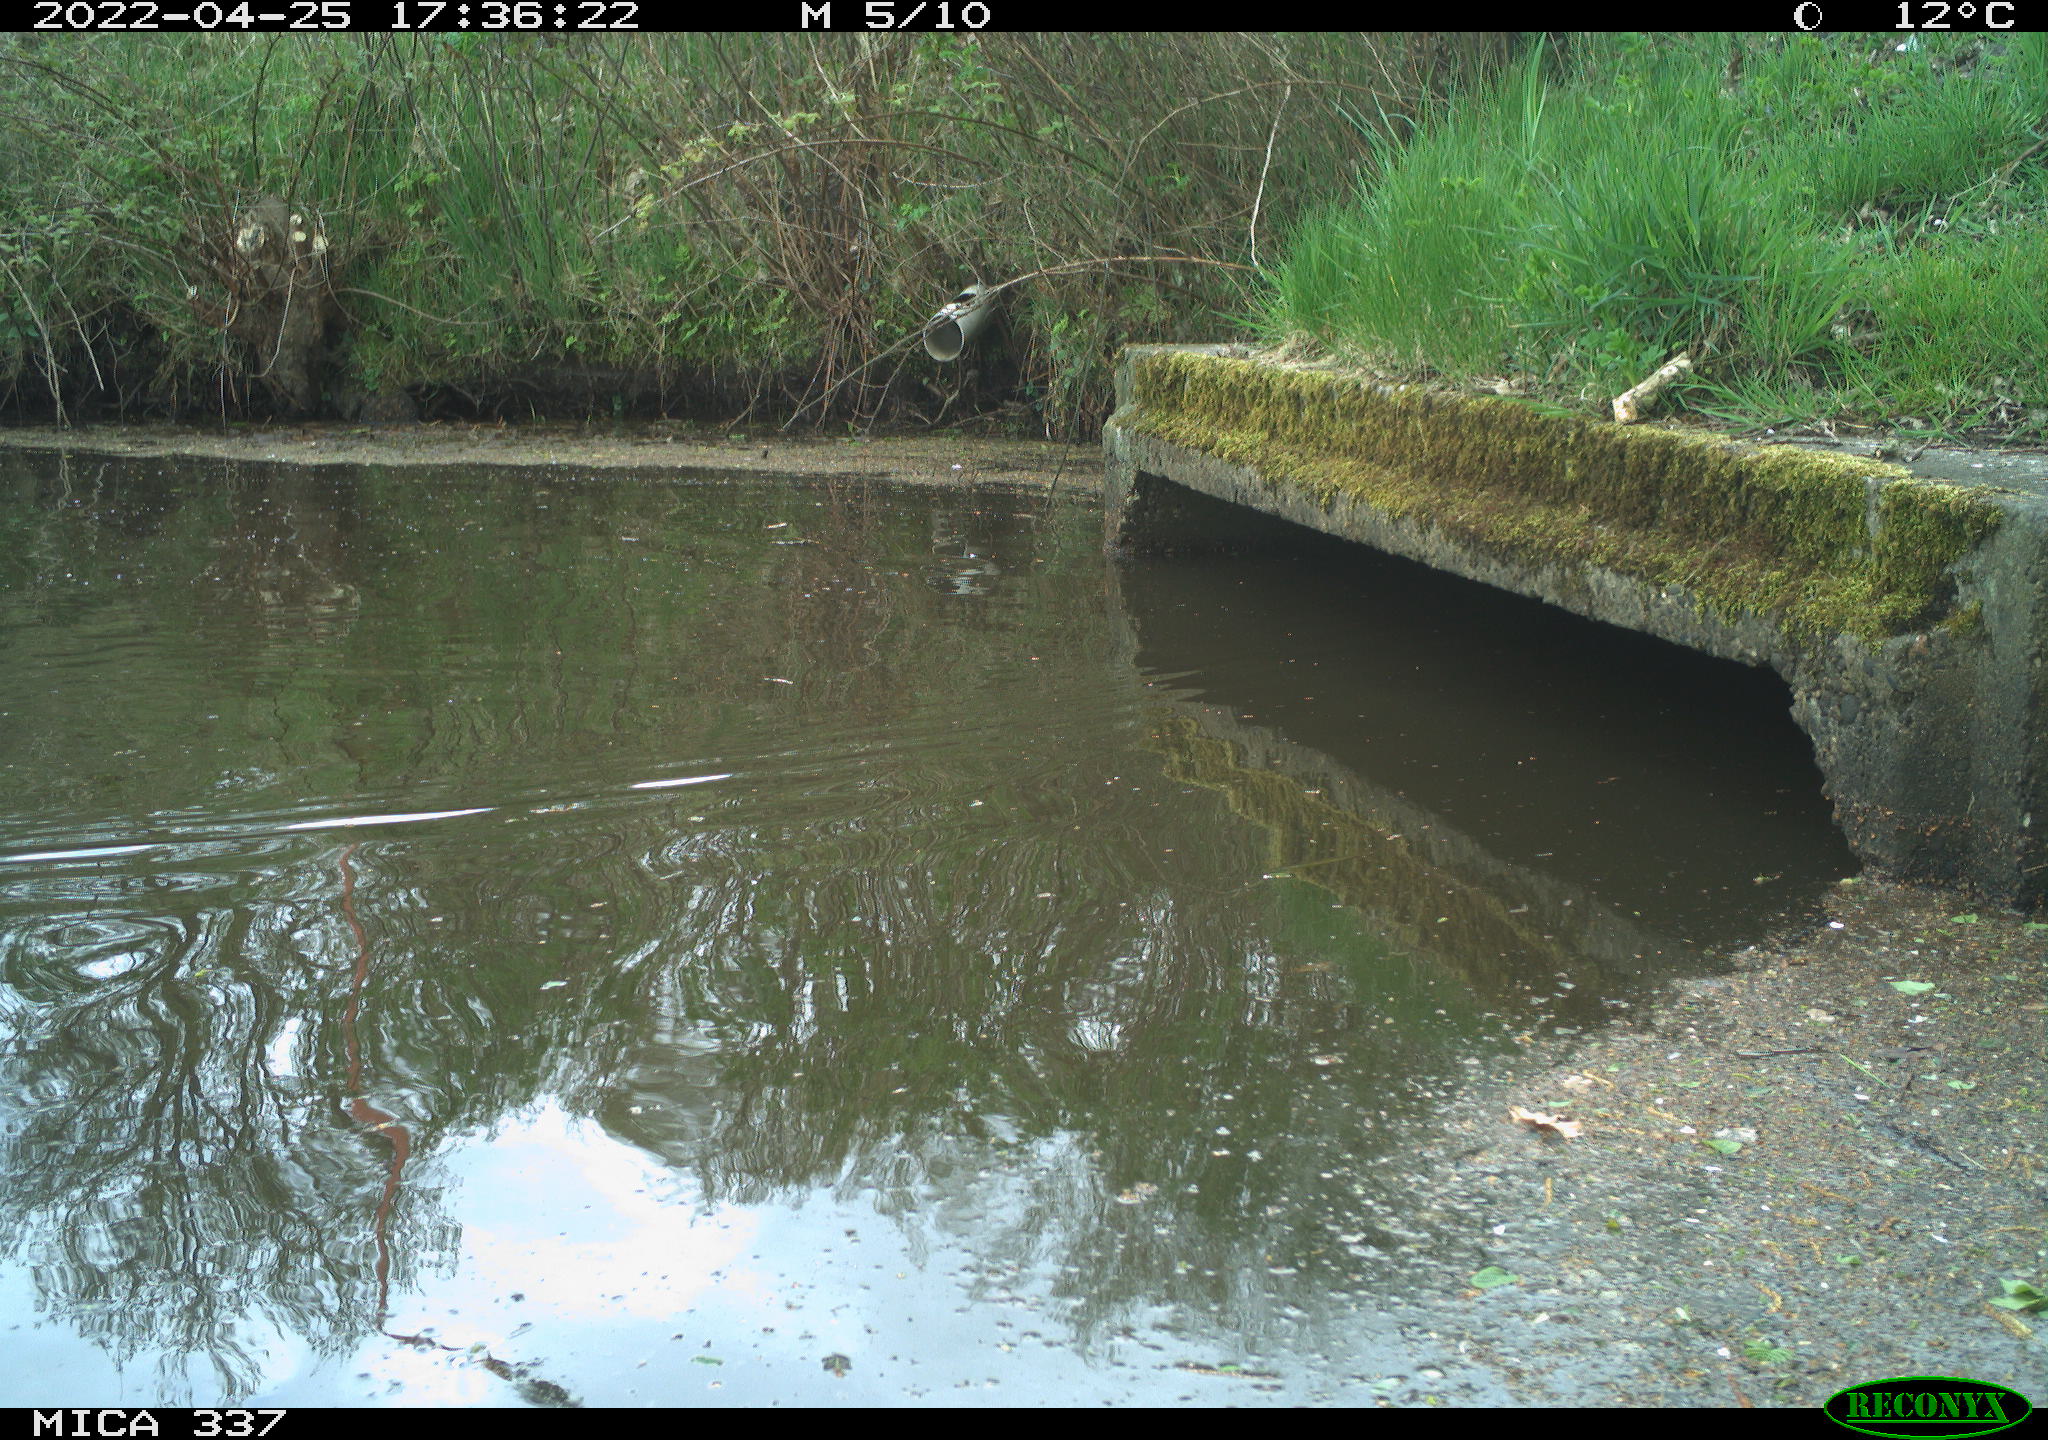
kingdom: Animalia
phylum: Chordata
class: Aves
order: Anseriformes
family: Anatidae
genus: Anas
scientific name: Anas platyrhynchos
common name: Mallard
